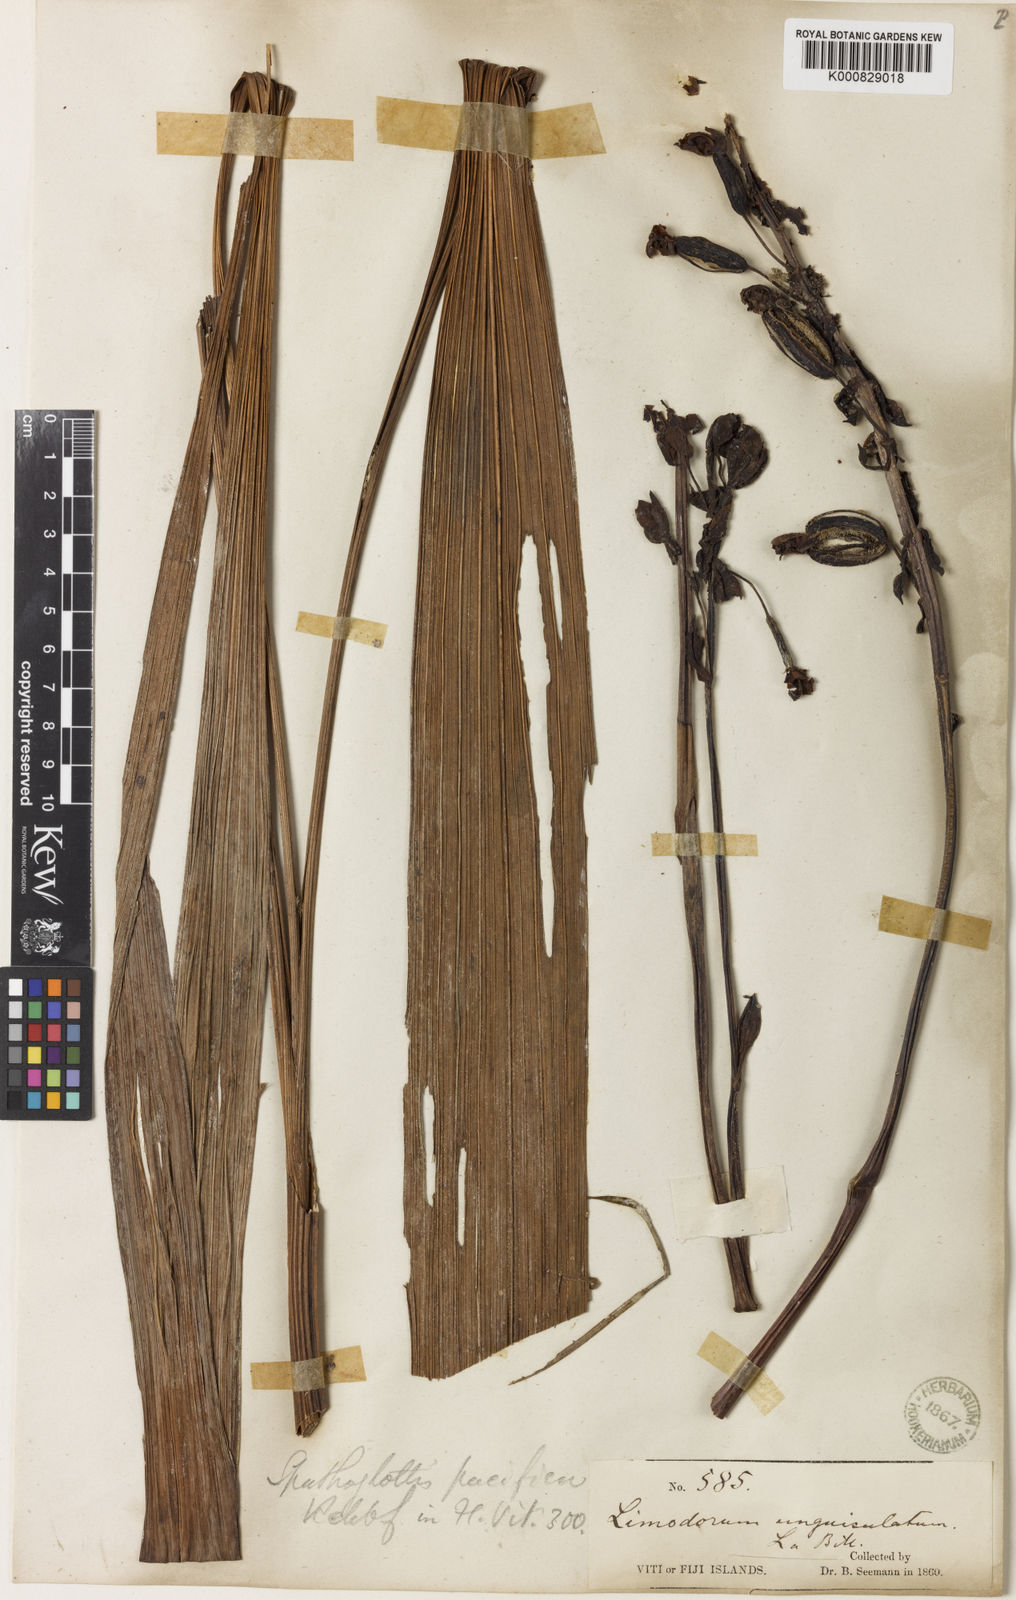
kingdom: Plantae
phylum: Tracheophyta
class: Liliopsida
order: Asparagales
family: Orchidaceae
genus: Spathoglottis
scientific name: Spathoglottis pacifica
